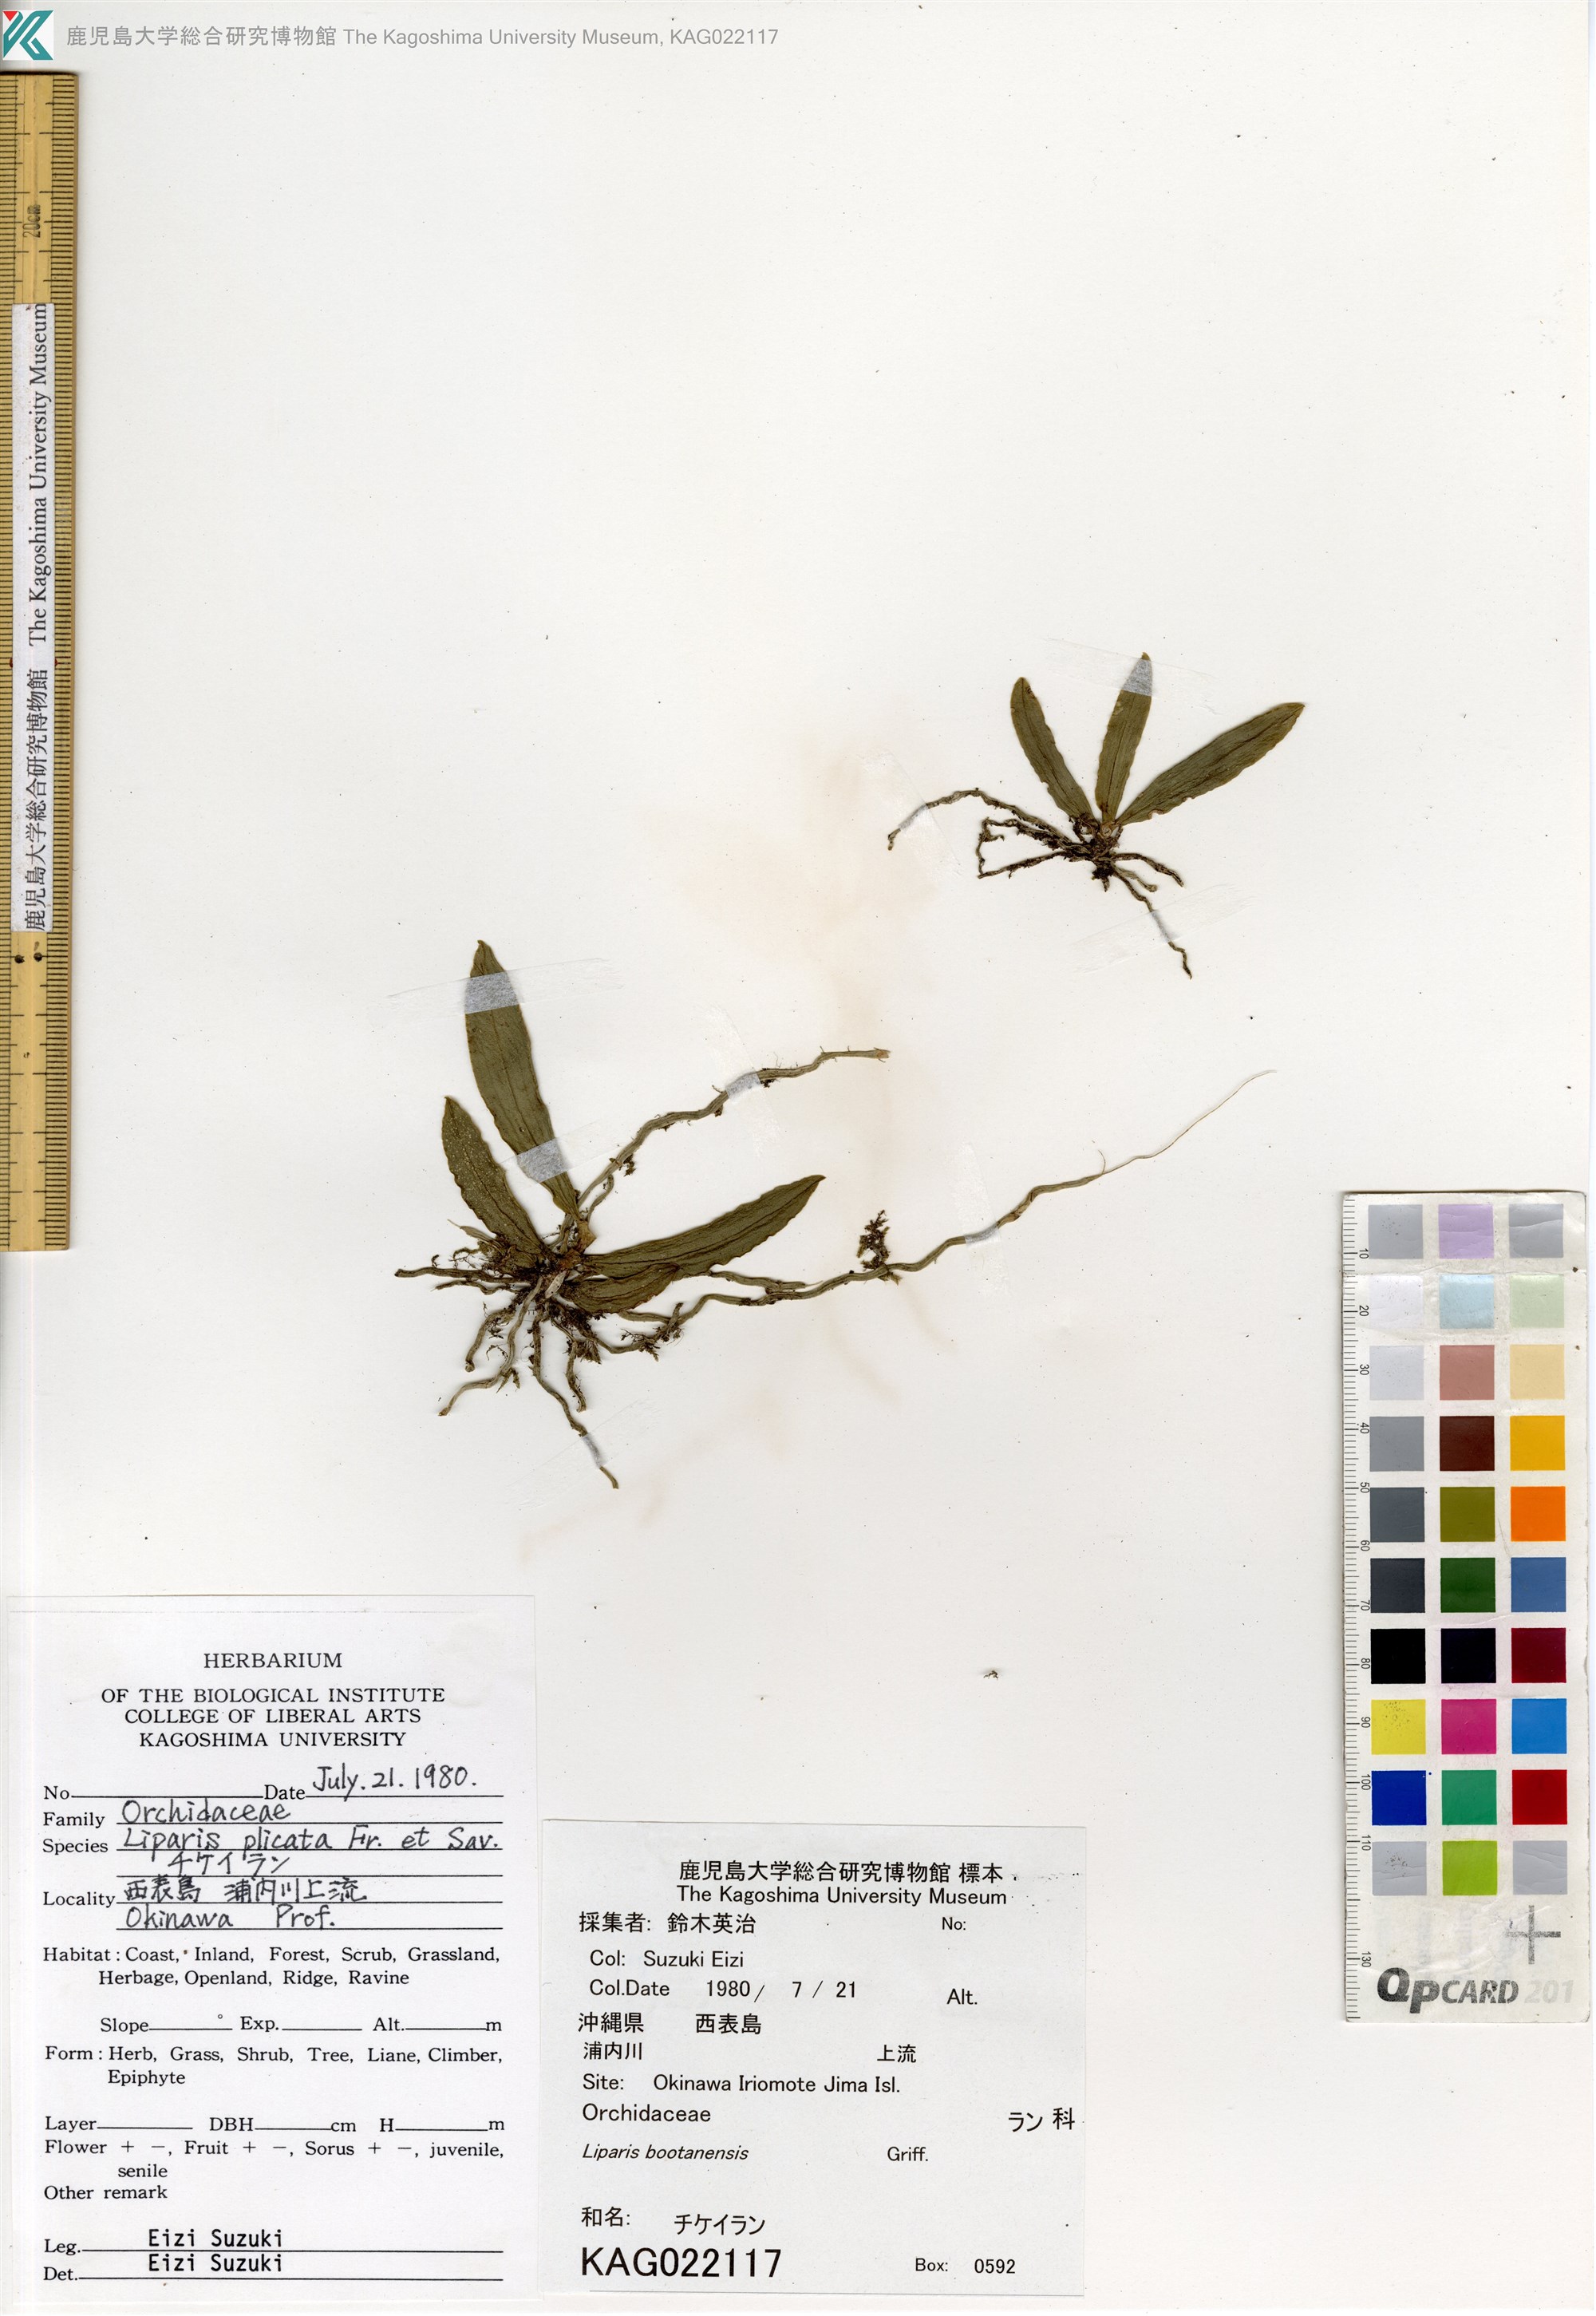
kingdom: Plantae
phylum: Tracheophyta
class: Liliopsida
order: Asparagales
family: Orchidaceae
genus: Liparis
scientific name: Liparis
